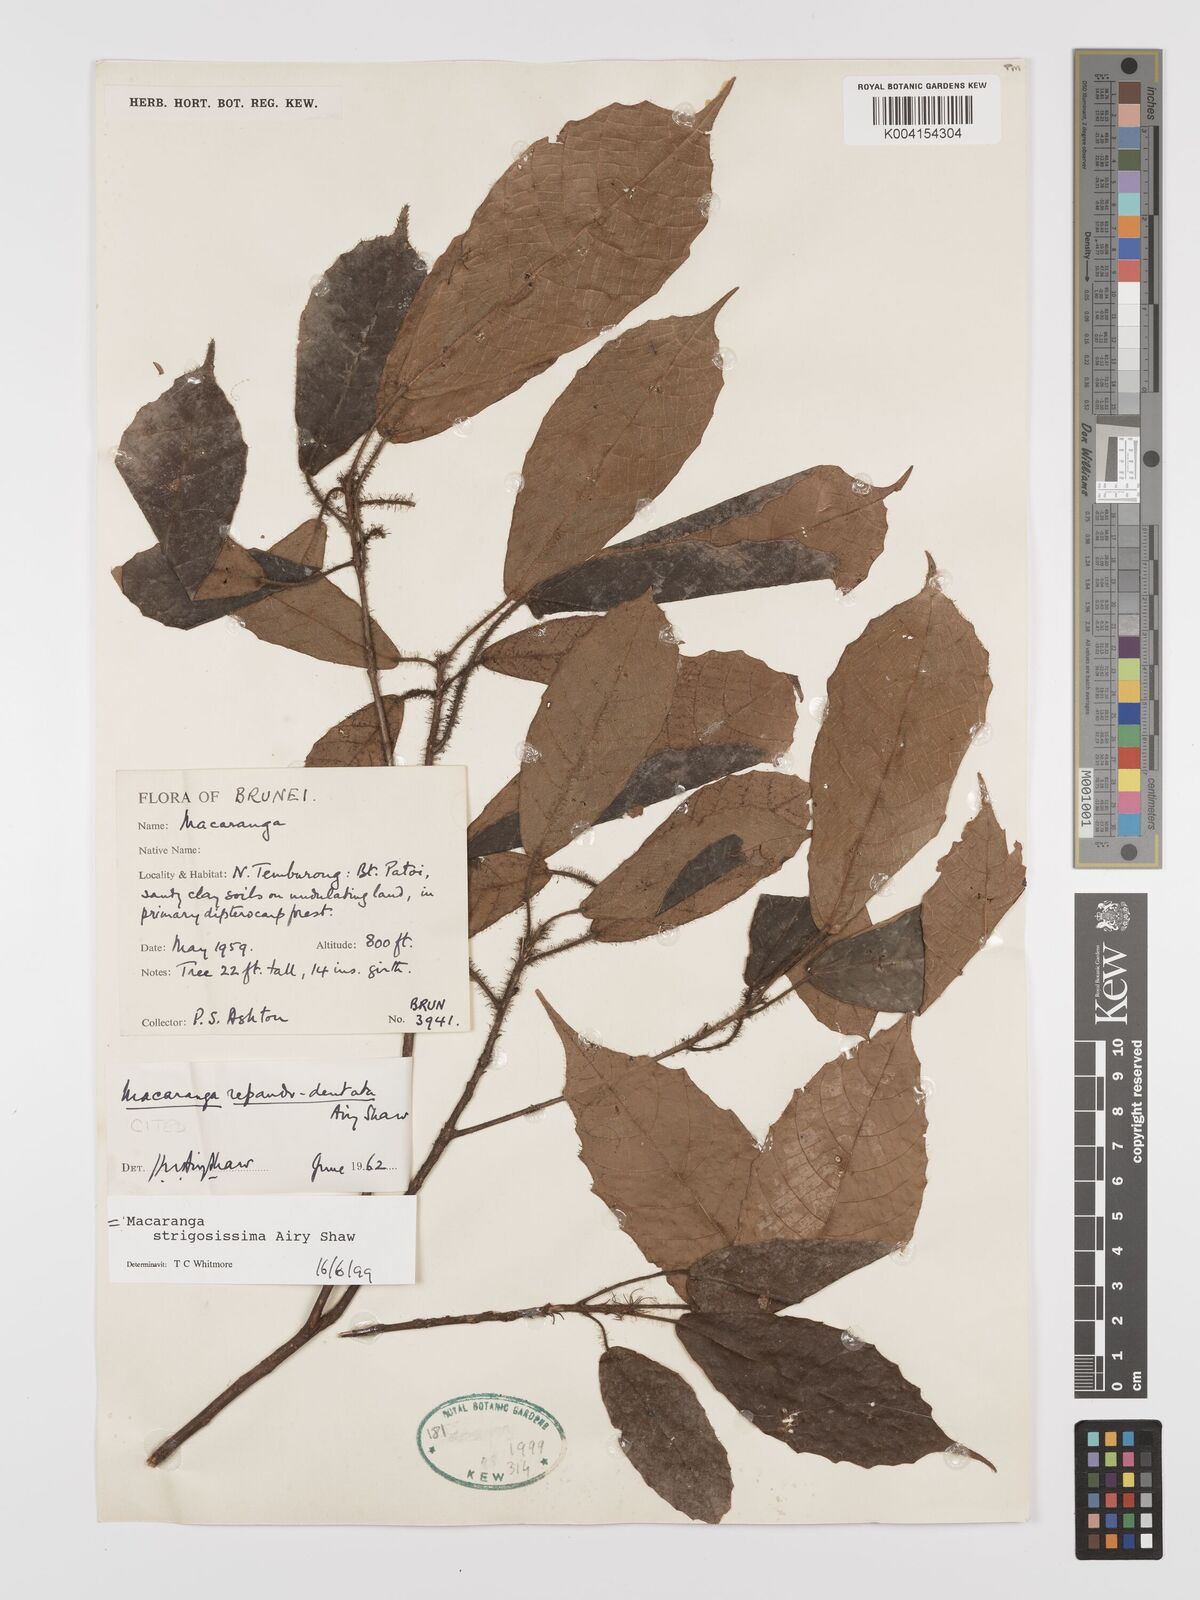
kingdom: Plantae
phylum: Tracheophyta
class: Magnoliopsida
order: Malpighiales
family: Euphorbiaceae
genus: Macaranga
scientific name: Macaranga strigosissima
